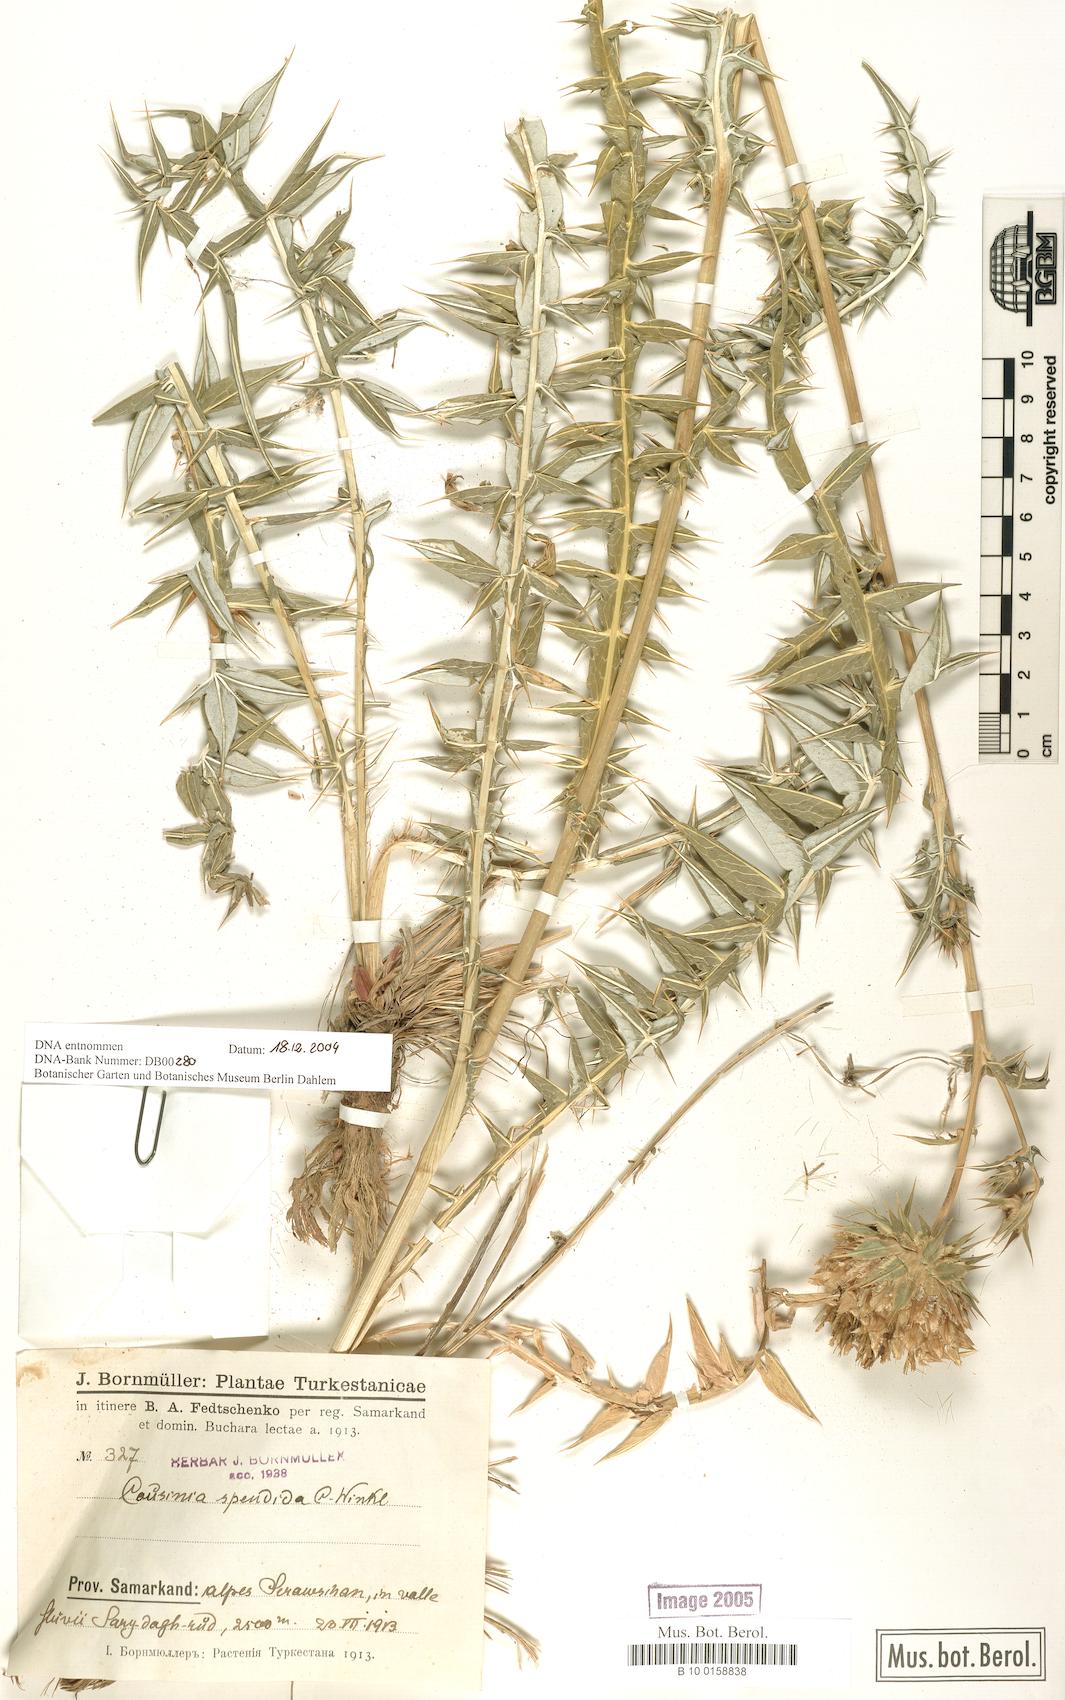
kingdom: Plantae
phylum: Tracheophyta
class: Magnoliopsida
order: Asterales
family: Asteraceae
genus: Cousinia
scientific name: Cousinia splendida
